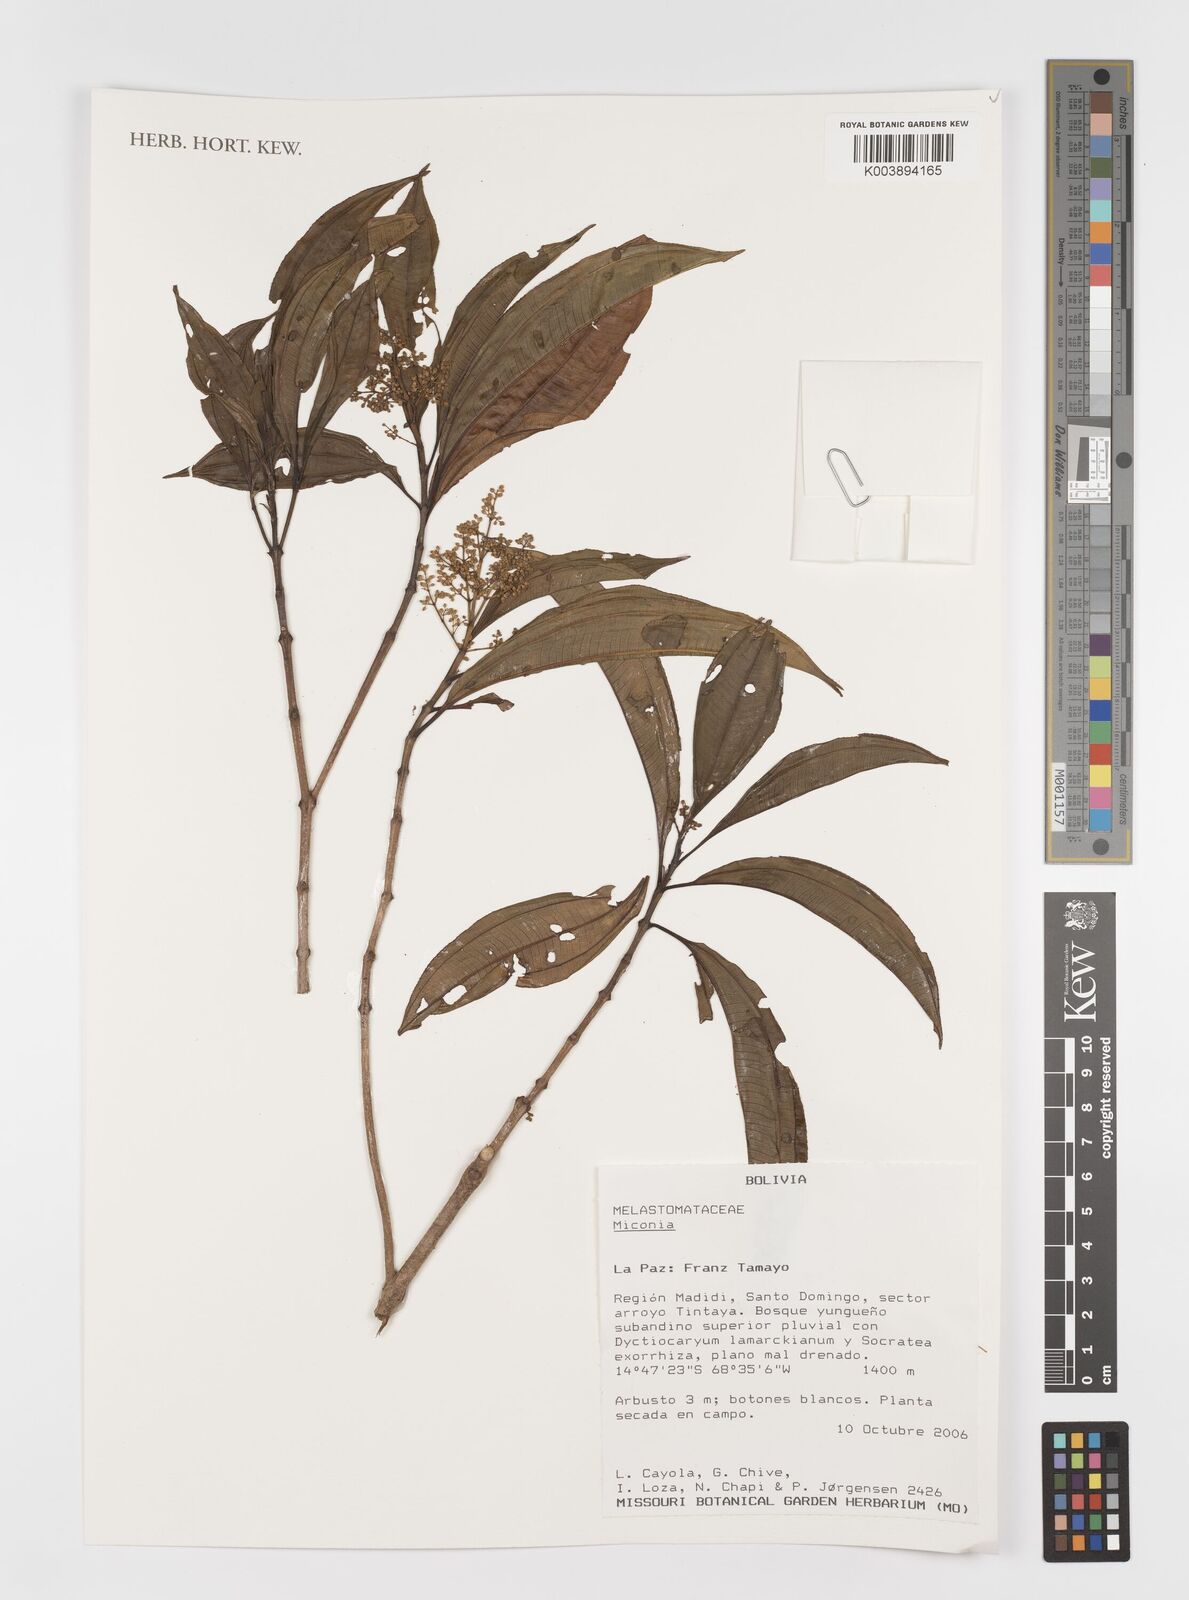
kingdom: Plantae
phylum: Tracheophyta
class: Magnoliopsida
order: Myrtales
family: Melastomataceae
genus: Miconia
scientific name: Miconia
